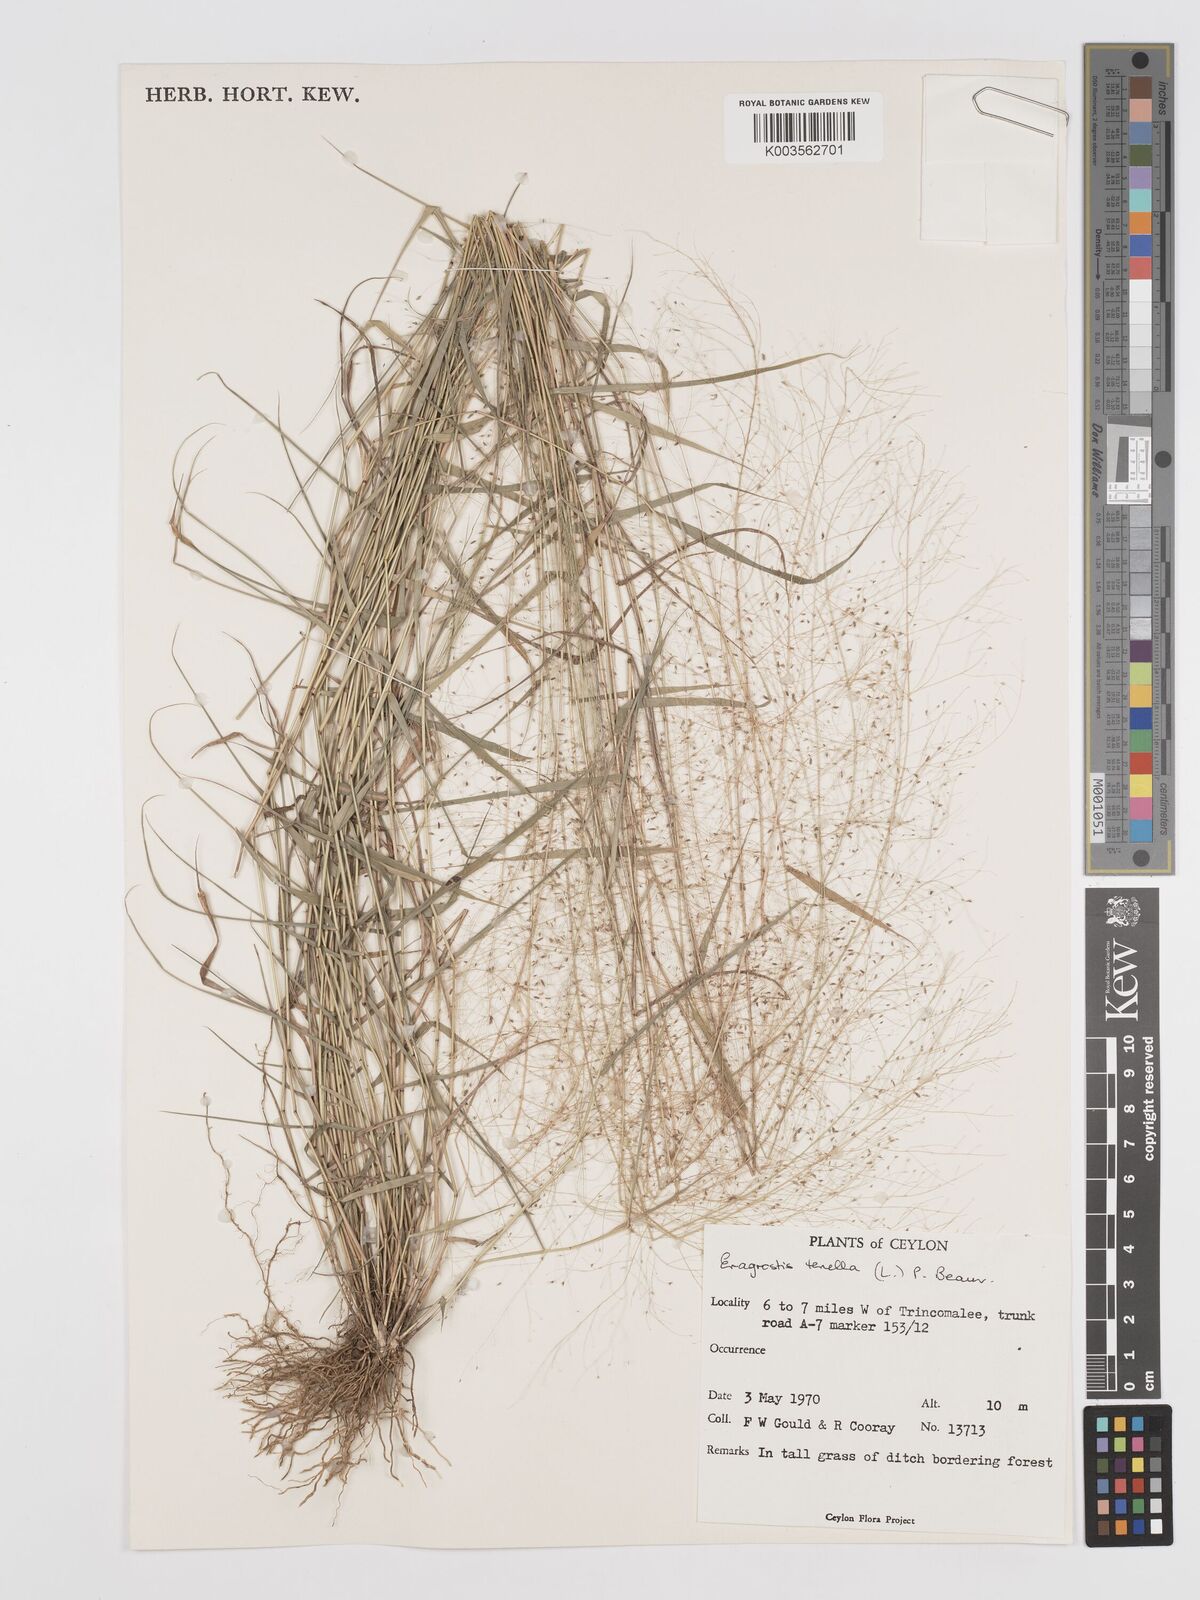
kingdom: Plantae
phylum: Tracheophyta
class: Liliopsida
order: Poales
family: Poaceae
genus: Eragrostis
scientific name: Eragrostis tenella
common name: Japanese lovegrass
